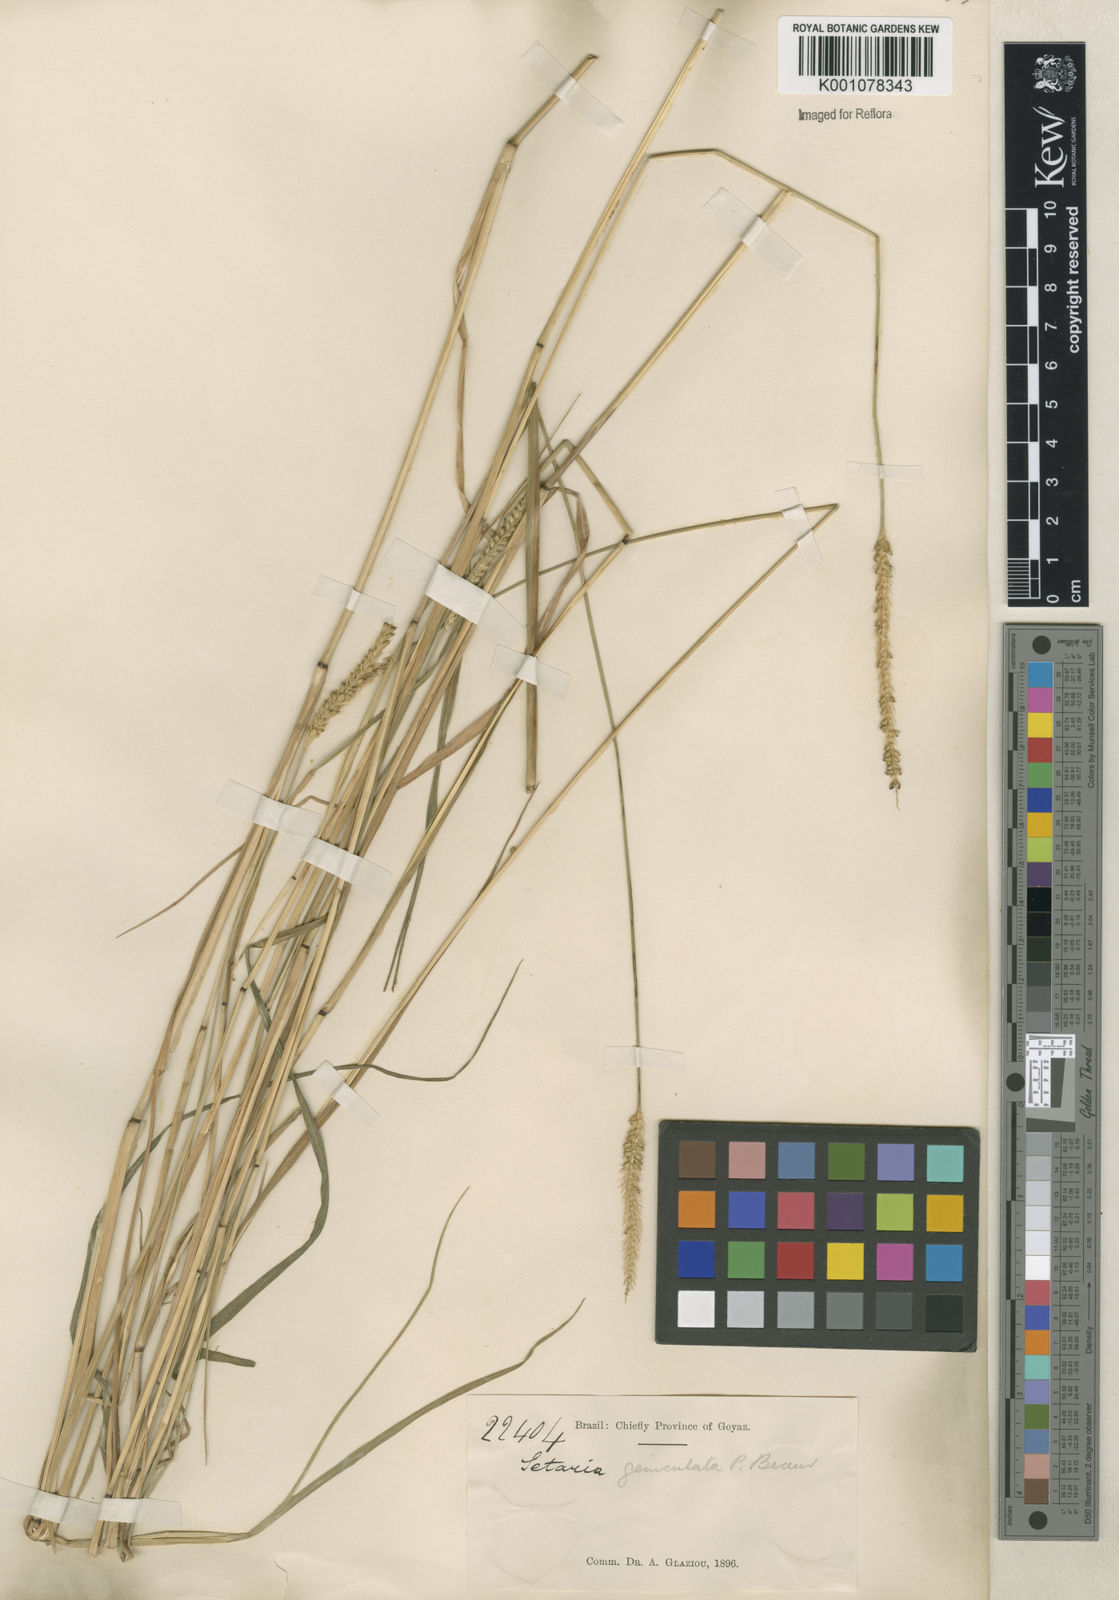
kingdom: Plantae
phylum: Tracheophyta
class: Liliopsida
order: Poales
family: Poaceae
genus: Setaria
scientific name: Setaria parviflora
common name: Knotroot bristle-grass
